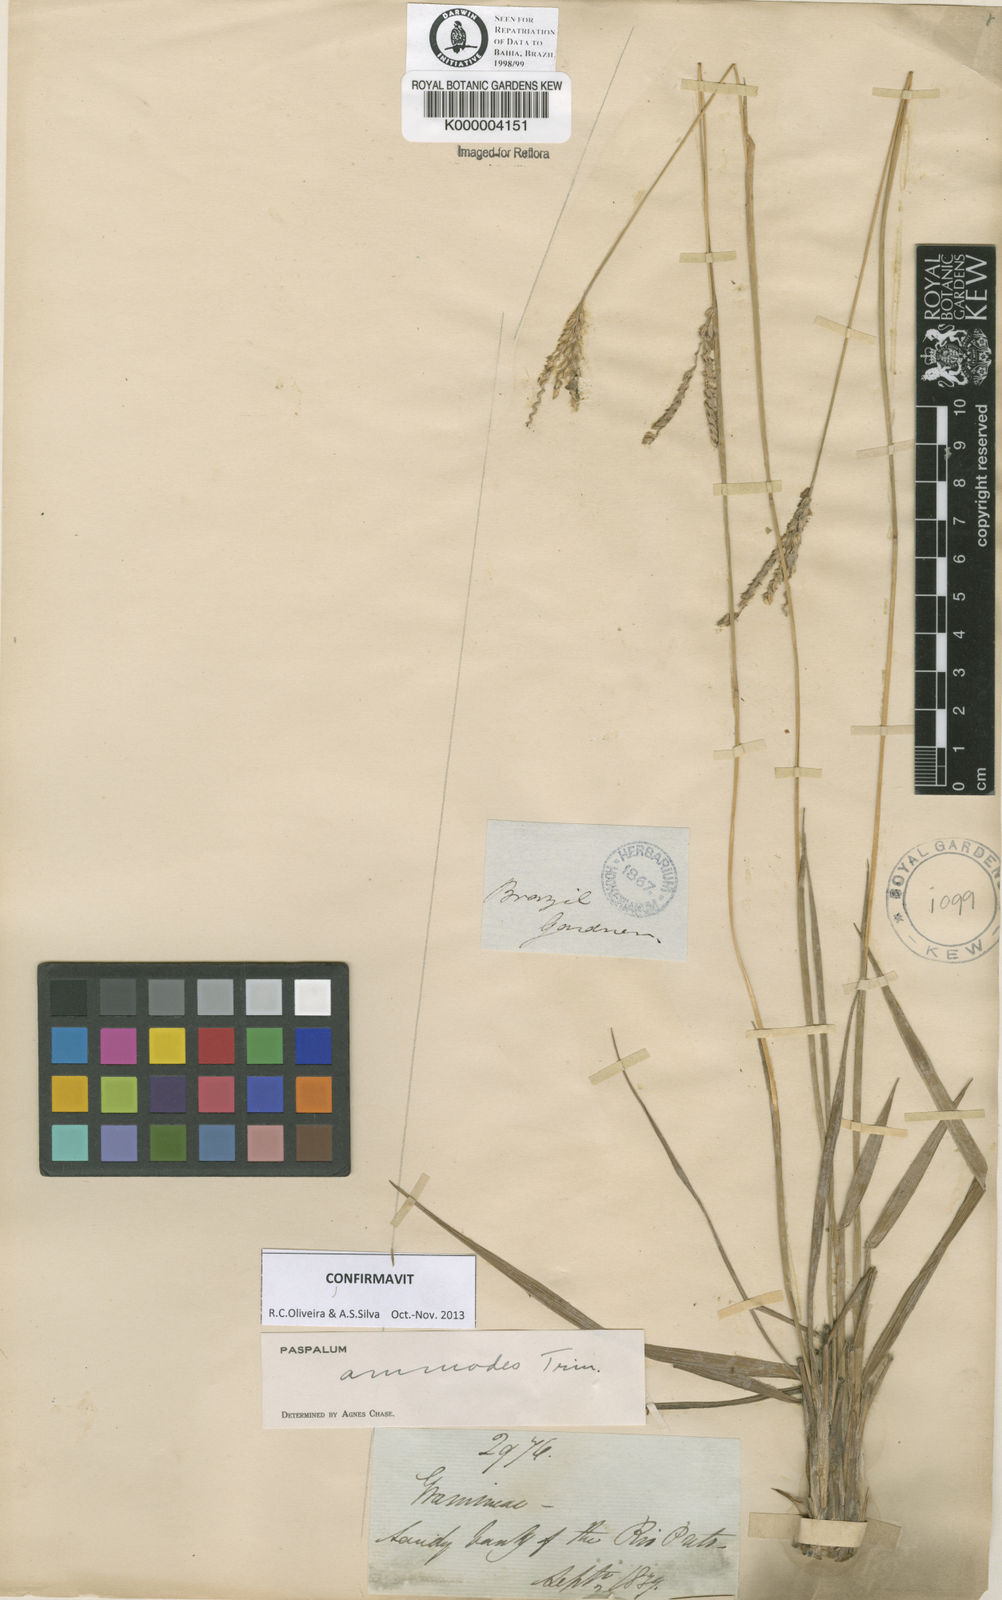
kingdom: Plantae
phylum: Tracheophyta
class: Liliopsida
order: Poales
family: Poaceae
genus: Paspalum
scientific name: Paspalum ammodes
